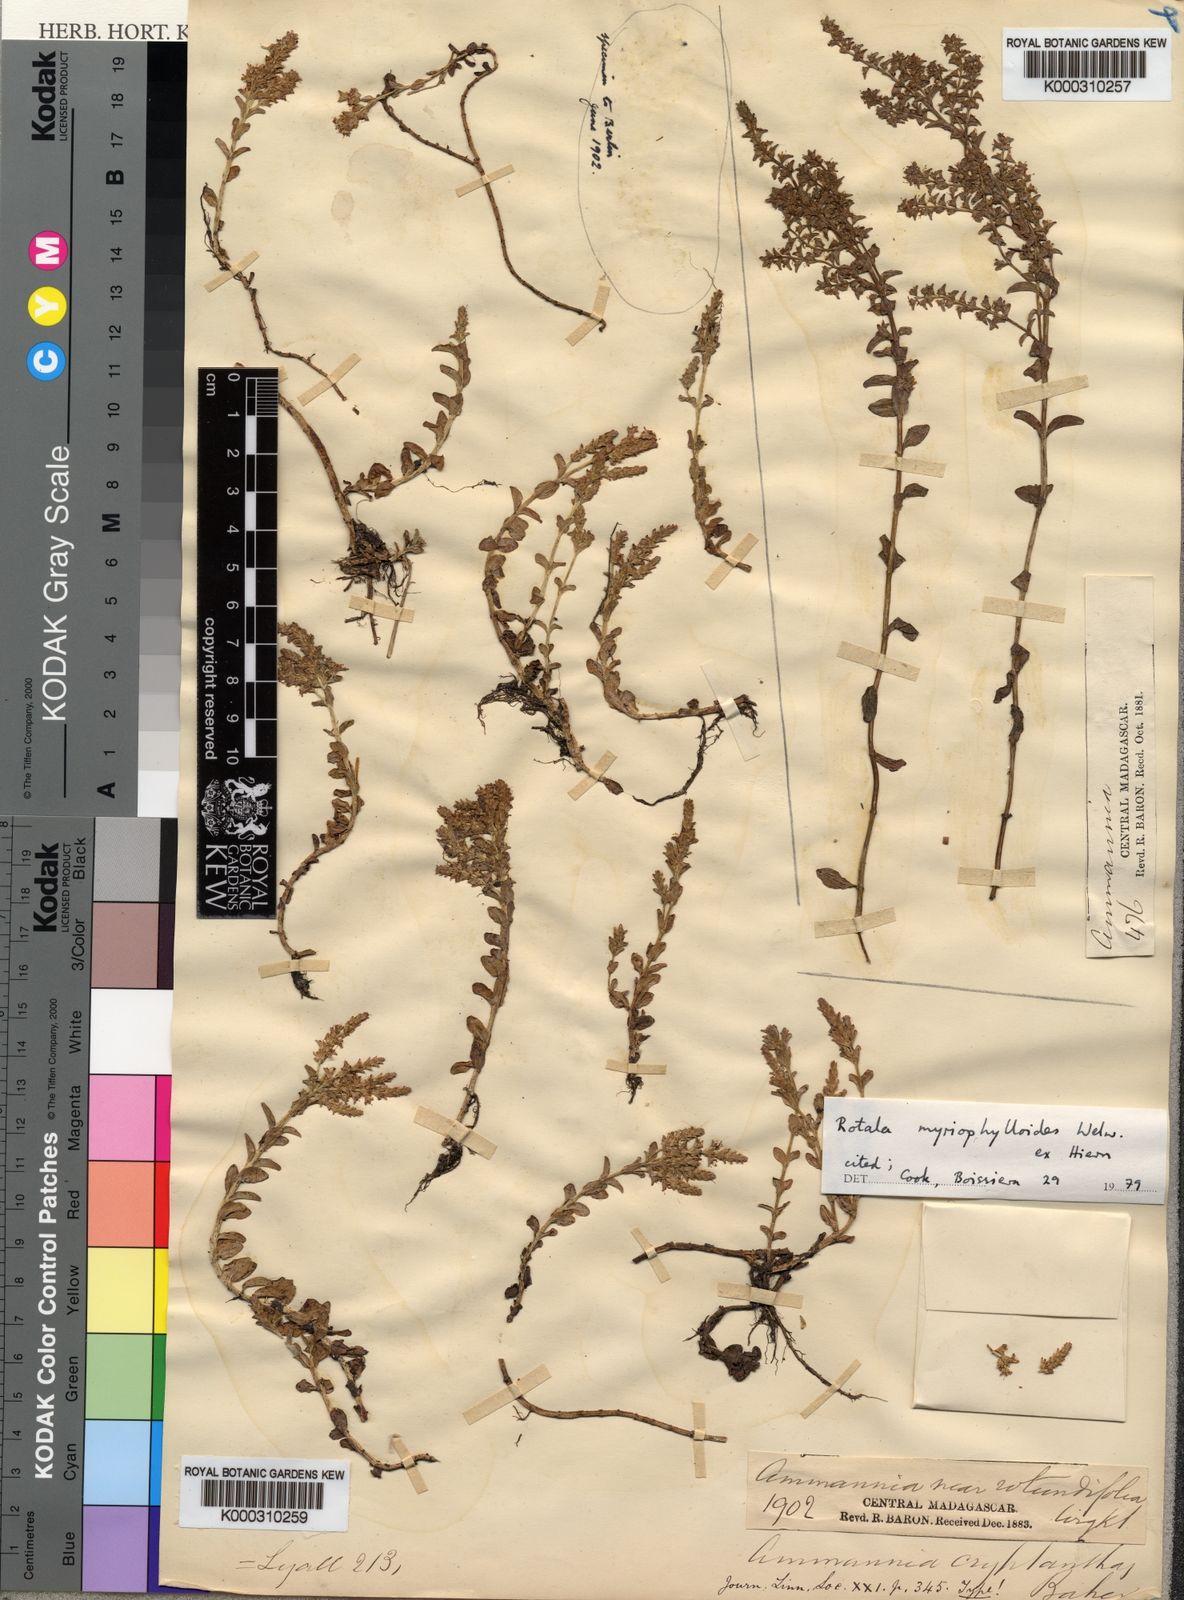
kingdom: Plantae
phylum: Tracheophyta
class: Magnoliopsida
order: Myrtales
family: Lythraceae
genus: Rotala
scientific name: Rotala myriophylloides
